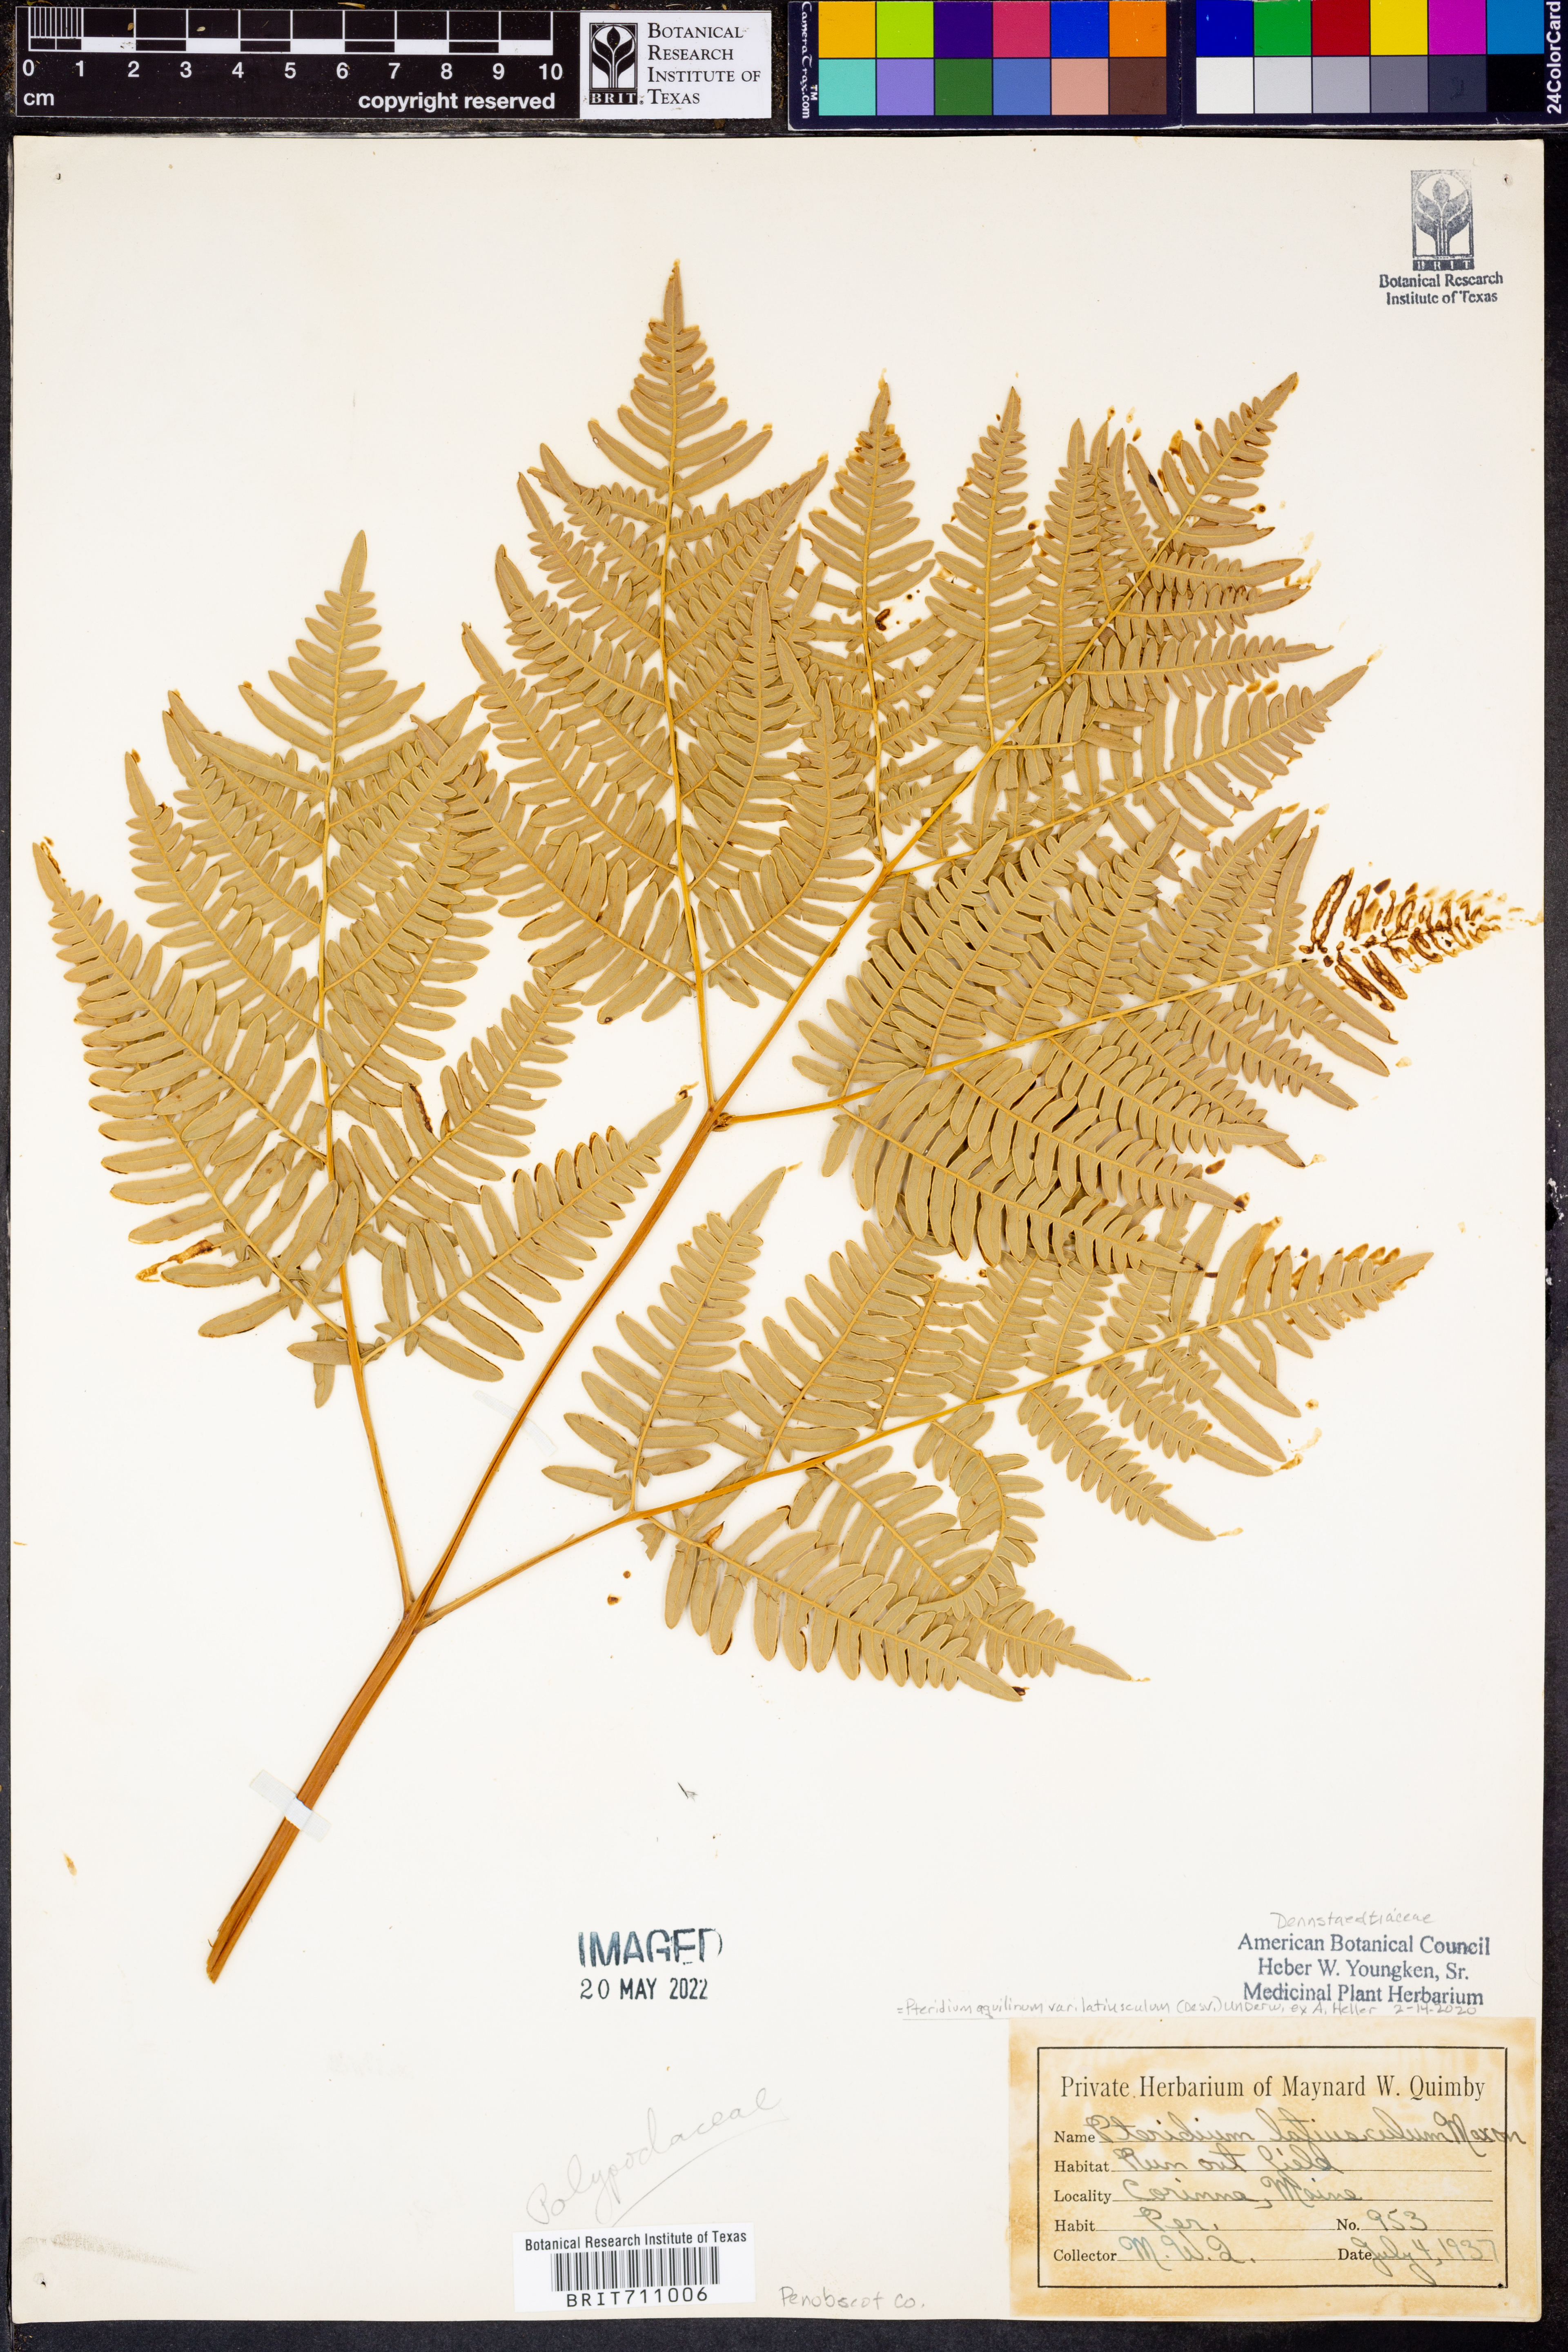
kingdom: Plantae
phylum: Tracheophyta
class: Polypodiopsida
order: Polypodiales
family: Dennstaedtiaceae
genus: Pteridium
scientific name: Pteridium aquilinum
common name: Bracken
